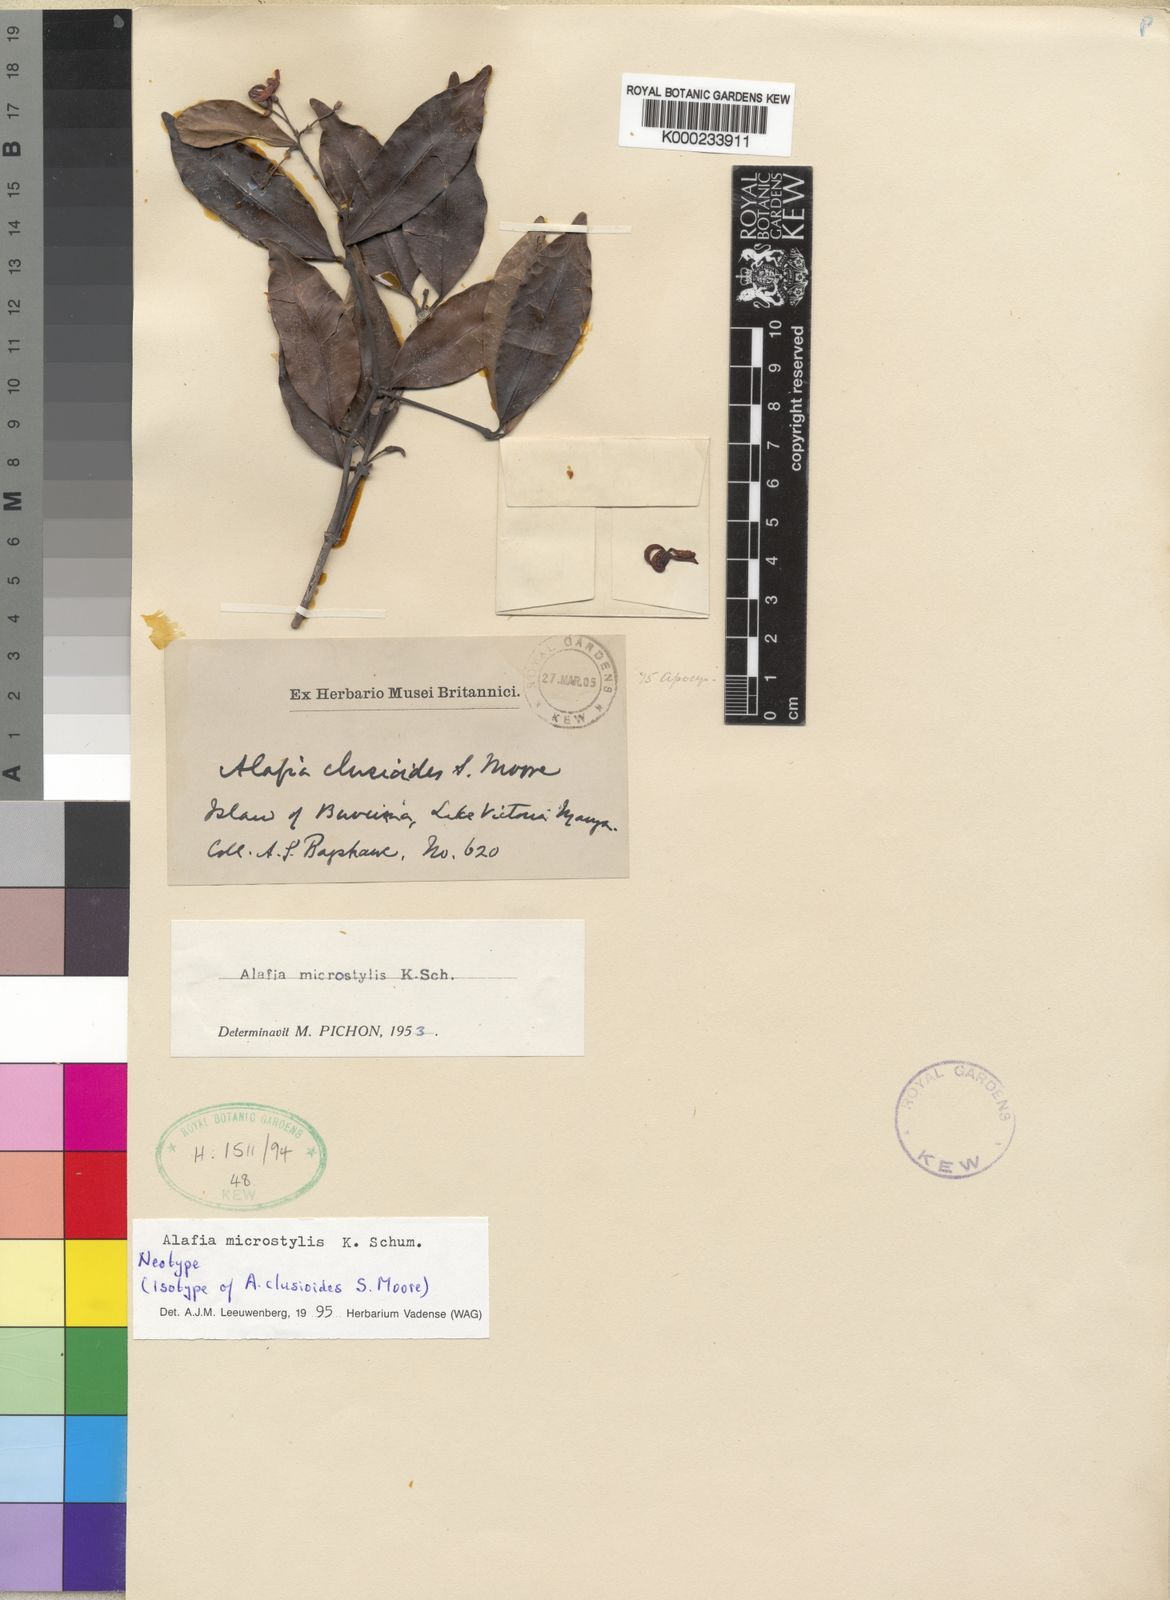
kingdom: Plantae
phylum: Tracheophyta
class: Magnoliopsida
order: Gentianales
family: Apocynaceae
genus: Alafia
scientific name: Alafia microstylis
